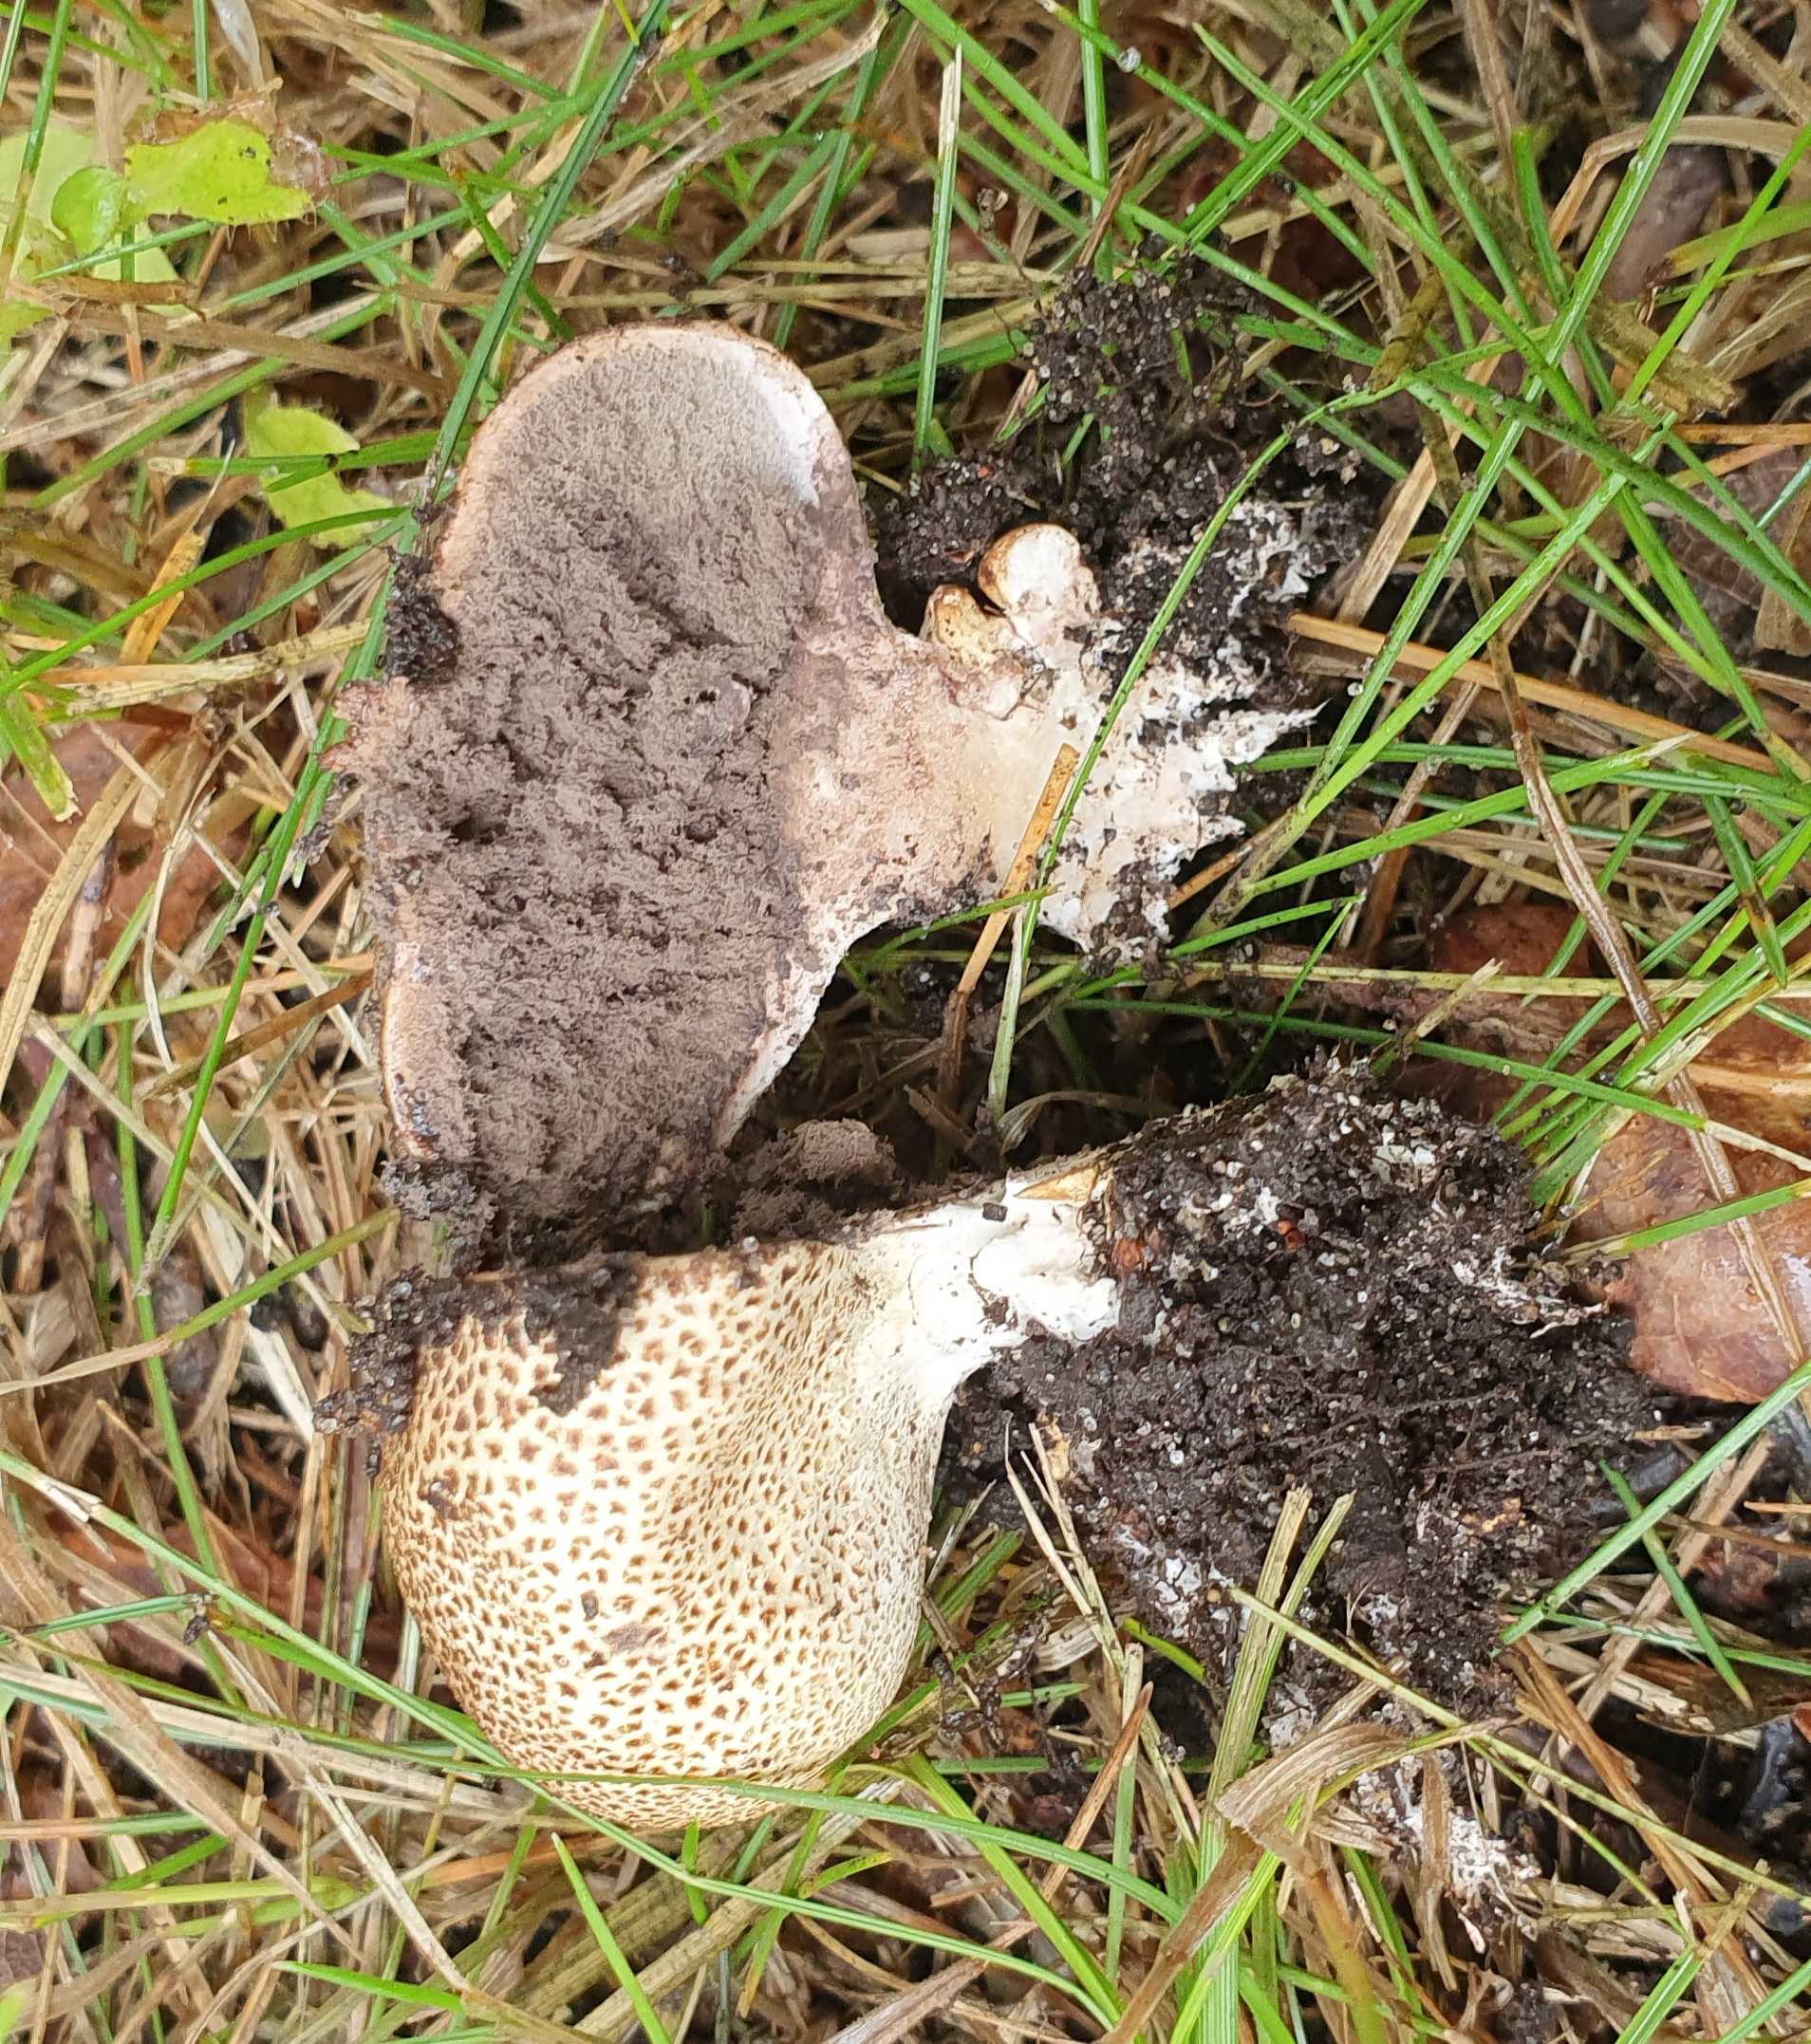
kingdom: Fungi
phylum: Basidiomycota
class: Agaricomycetes
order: Boletales
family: Sclerodermataceae
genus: Scleroderma
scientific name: Scleroderma
